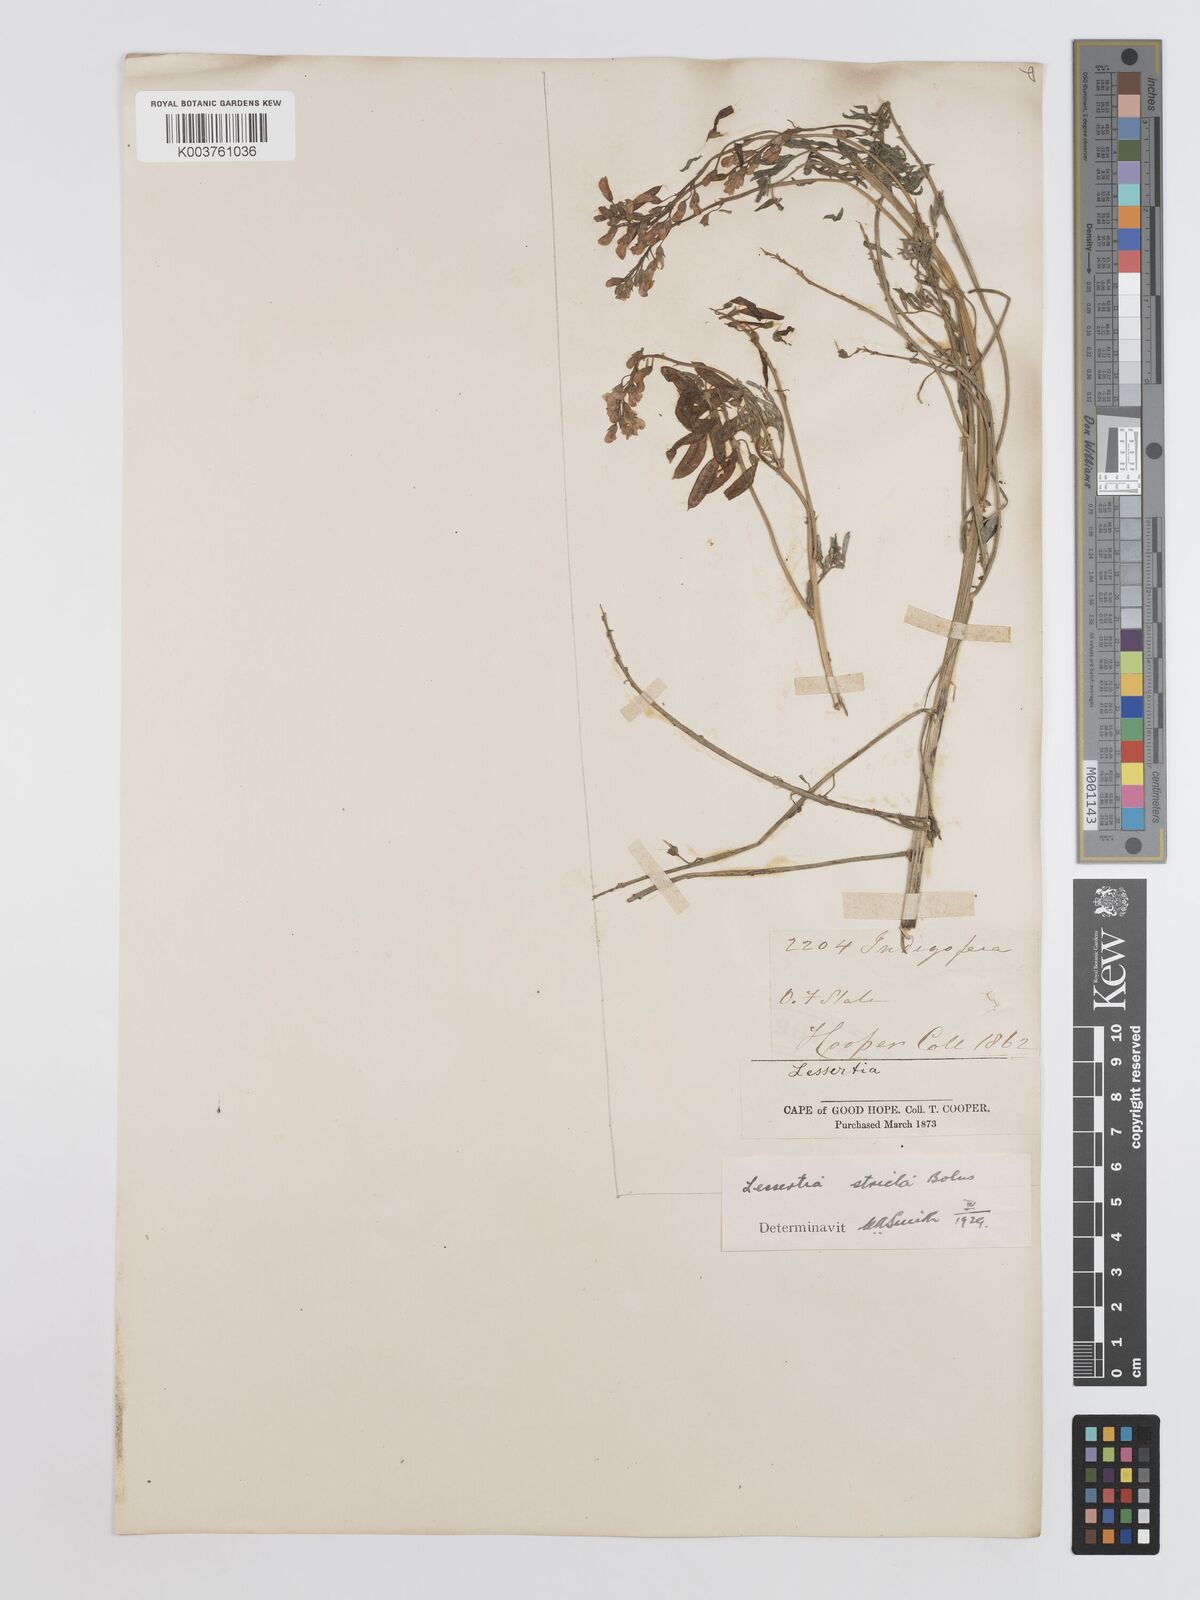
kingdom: Plantae
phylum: Tracheophyta
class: Magnoliopsida
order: Fabales
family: Fabaceae
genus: Lessertia
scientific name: Lessertia stricta
